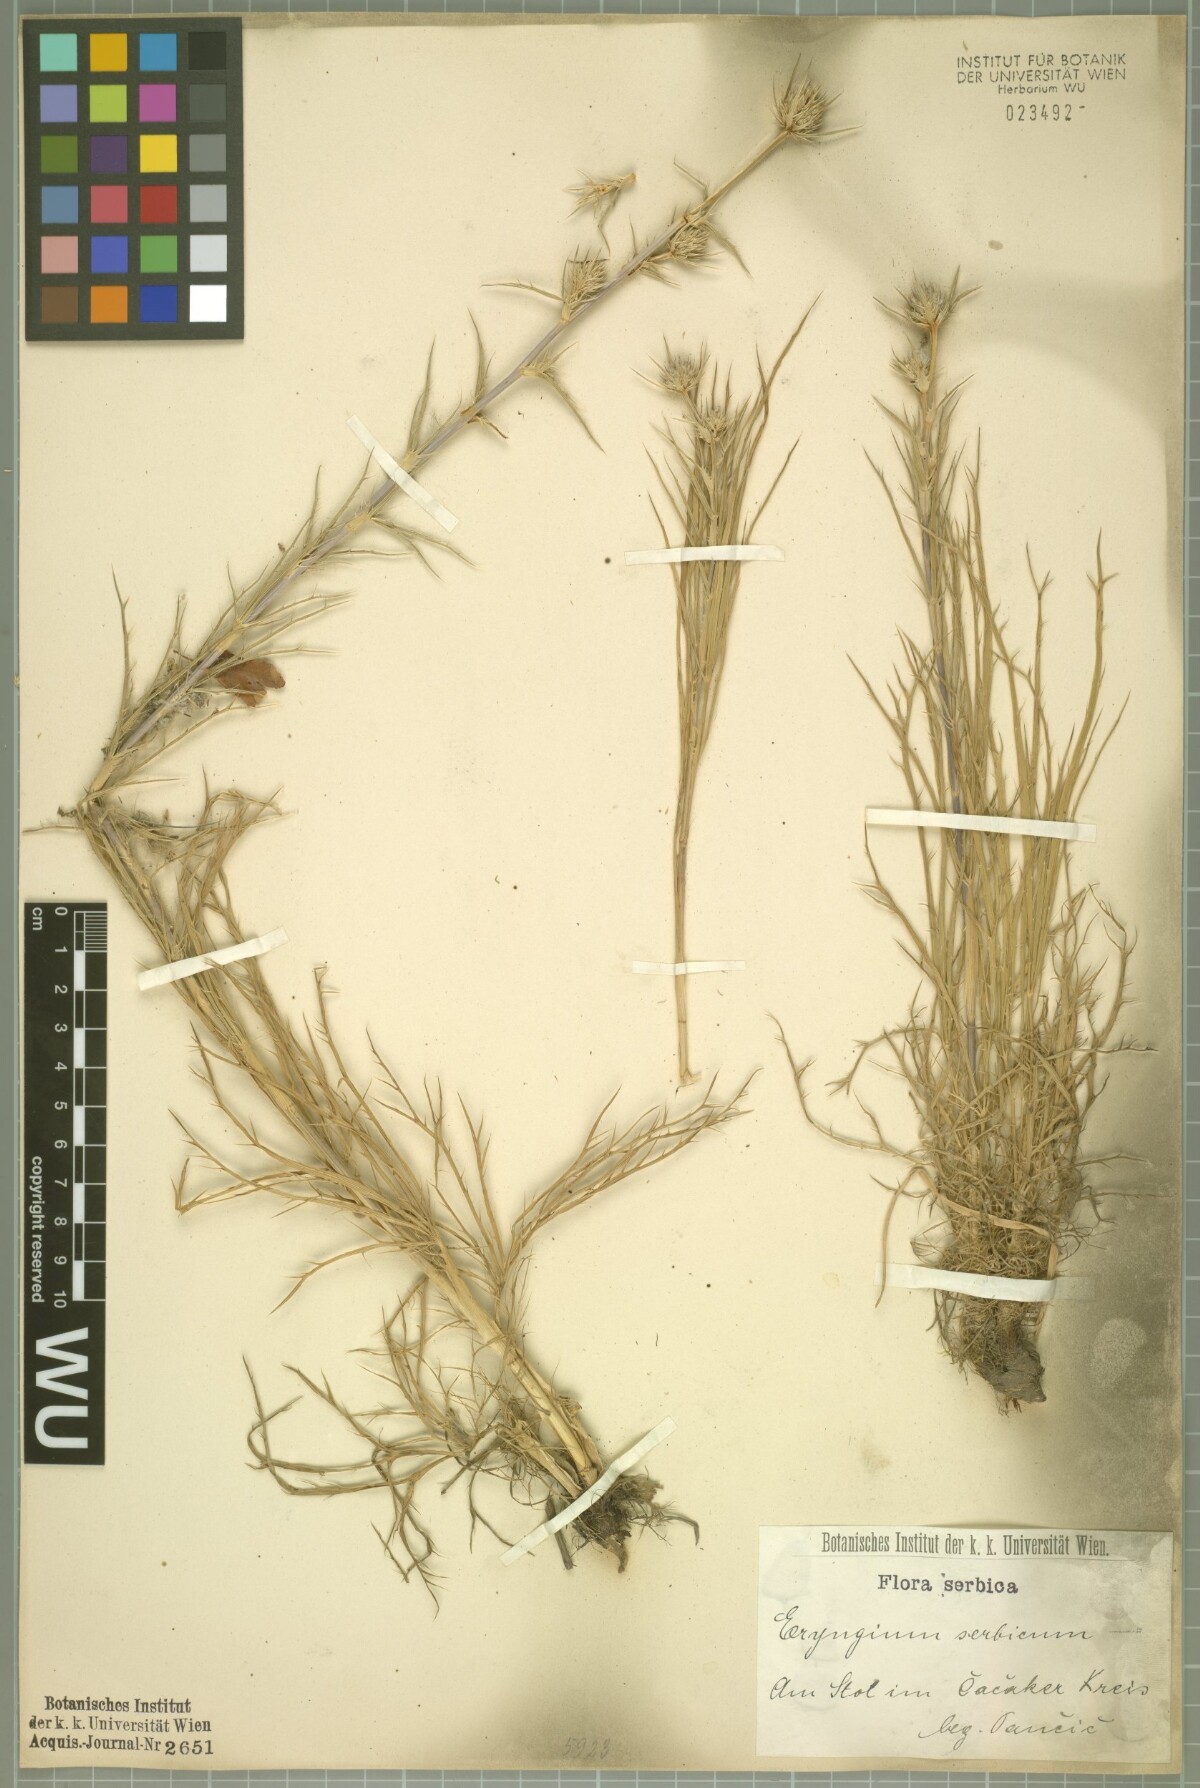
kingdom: Plantae
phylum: Tracheophyta
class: Magnoliopsida
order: Apiales
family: Apiaceae
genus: Eryngium
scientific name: Eryngium serbicum
